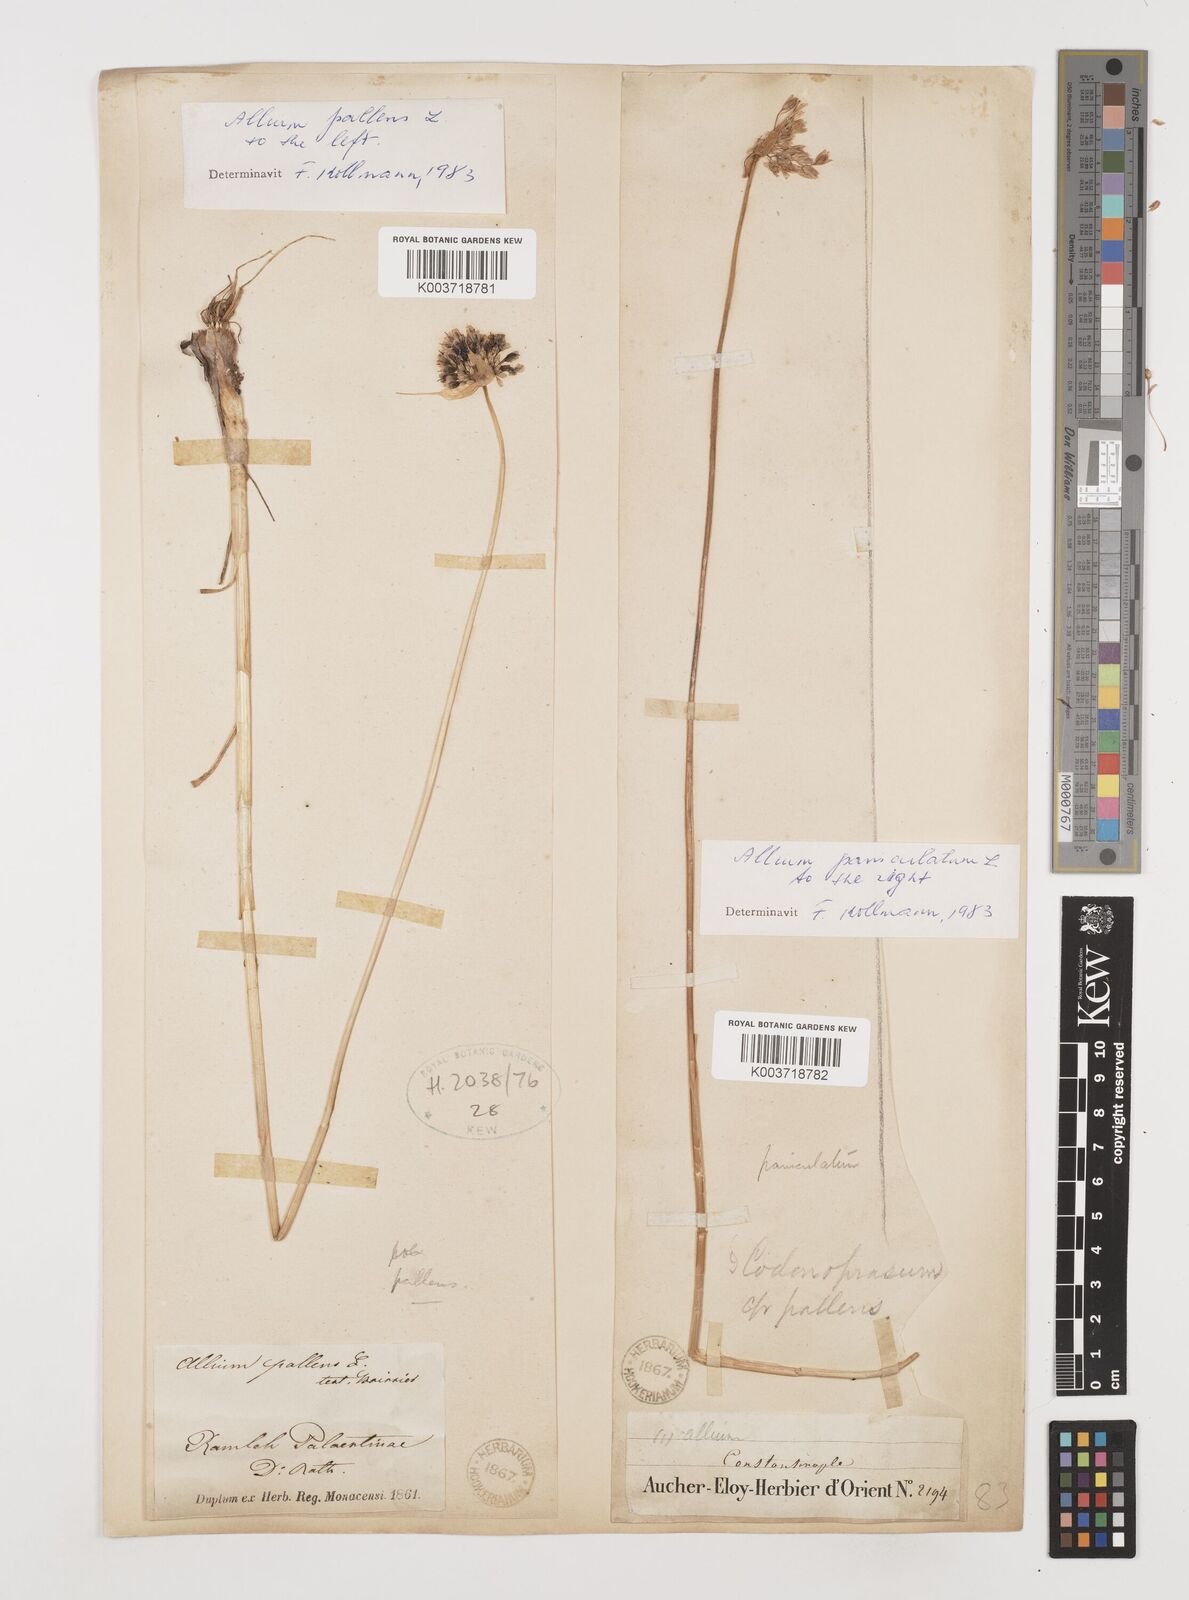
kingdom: Plantae
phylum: Tracheophyta
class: Liliopsida
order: Asparagales
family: Amaryllidaceae
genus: Allium
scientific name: Allium flavum
